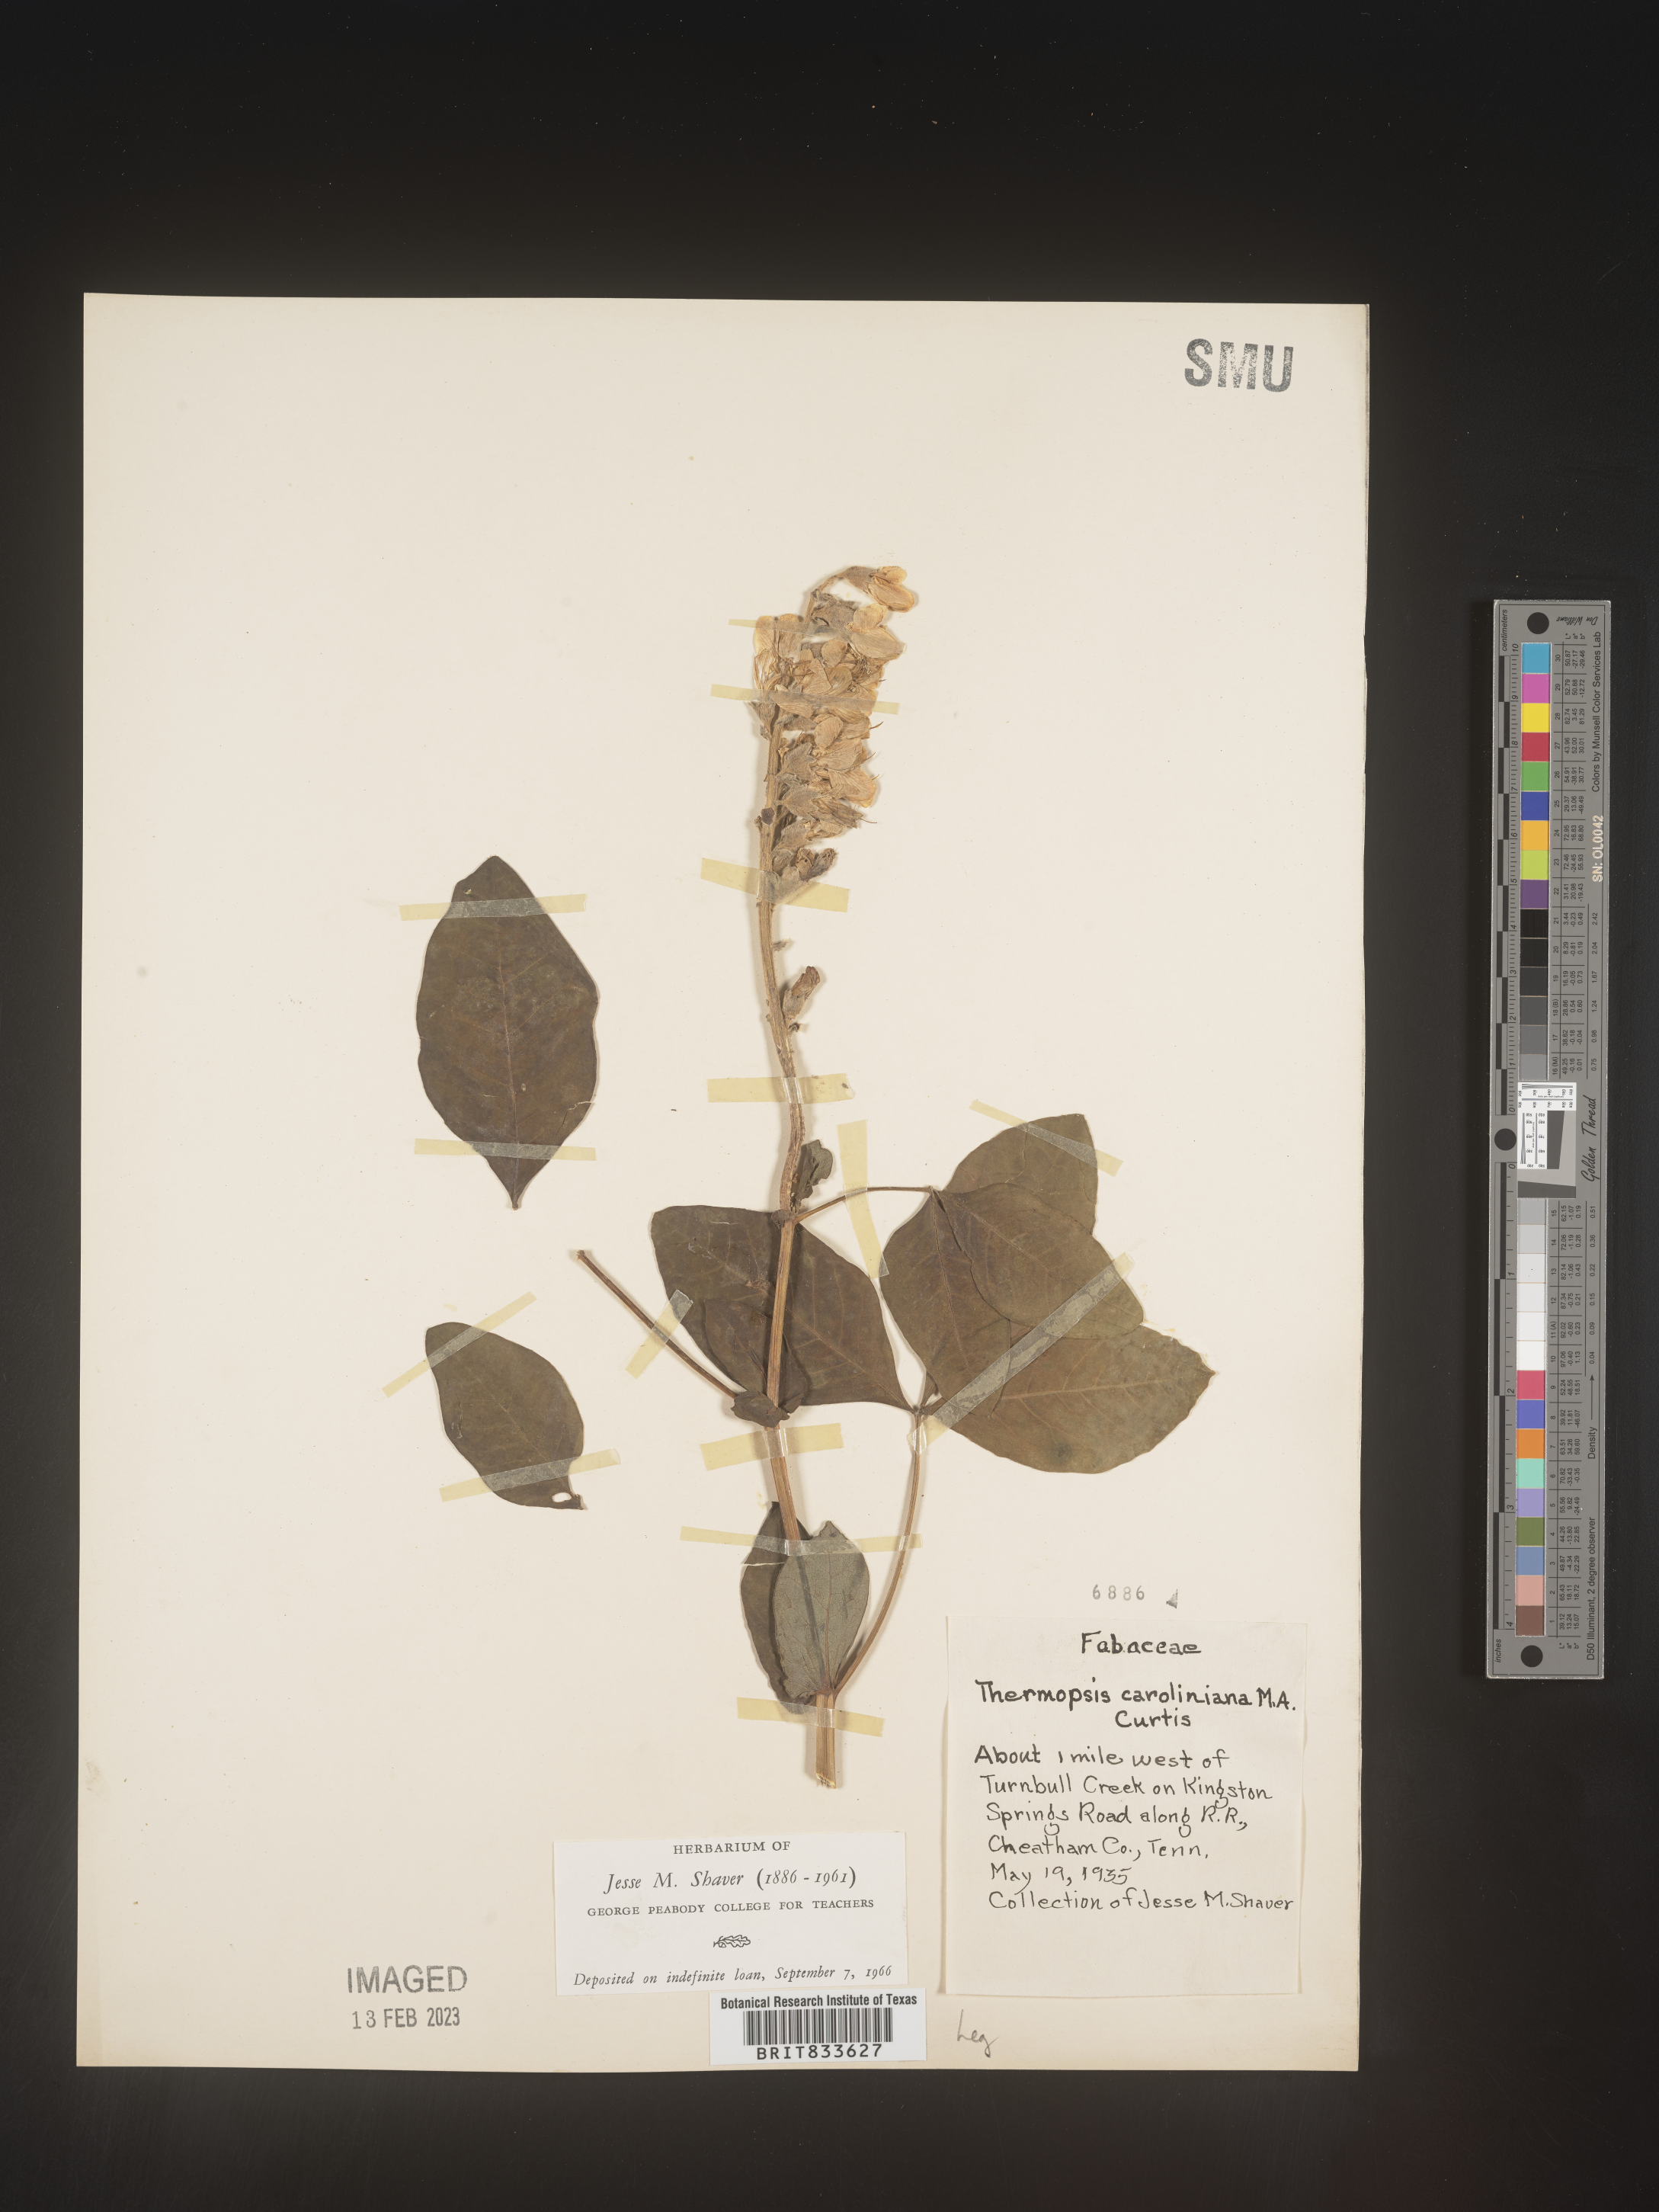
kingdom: Plantae
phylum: Tracheophyta
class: Magnoliopsida
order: Fabales
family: Fabaceae
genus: Thermopsis
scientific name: Thermopsis villosa
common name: Carolina-lupin
